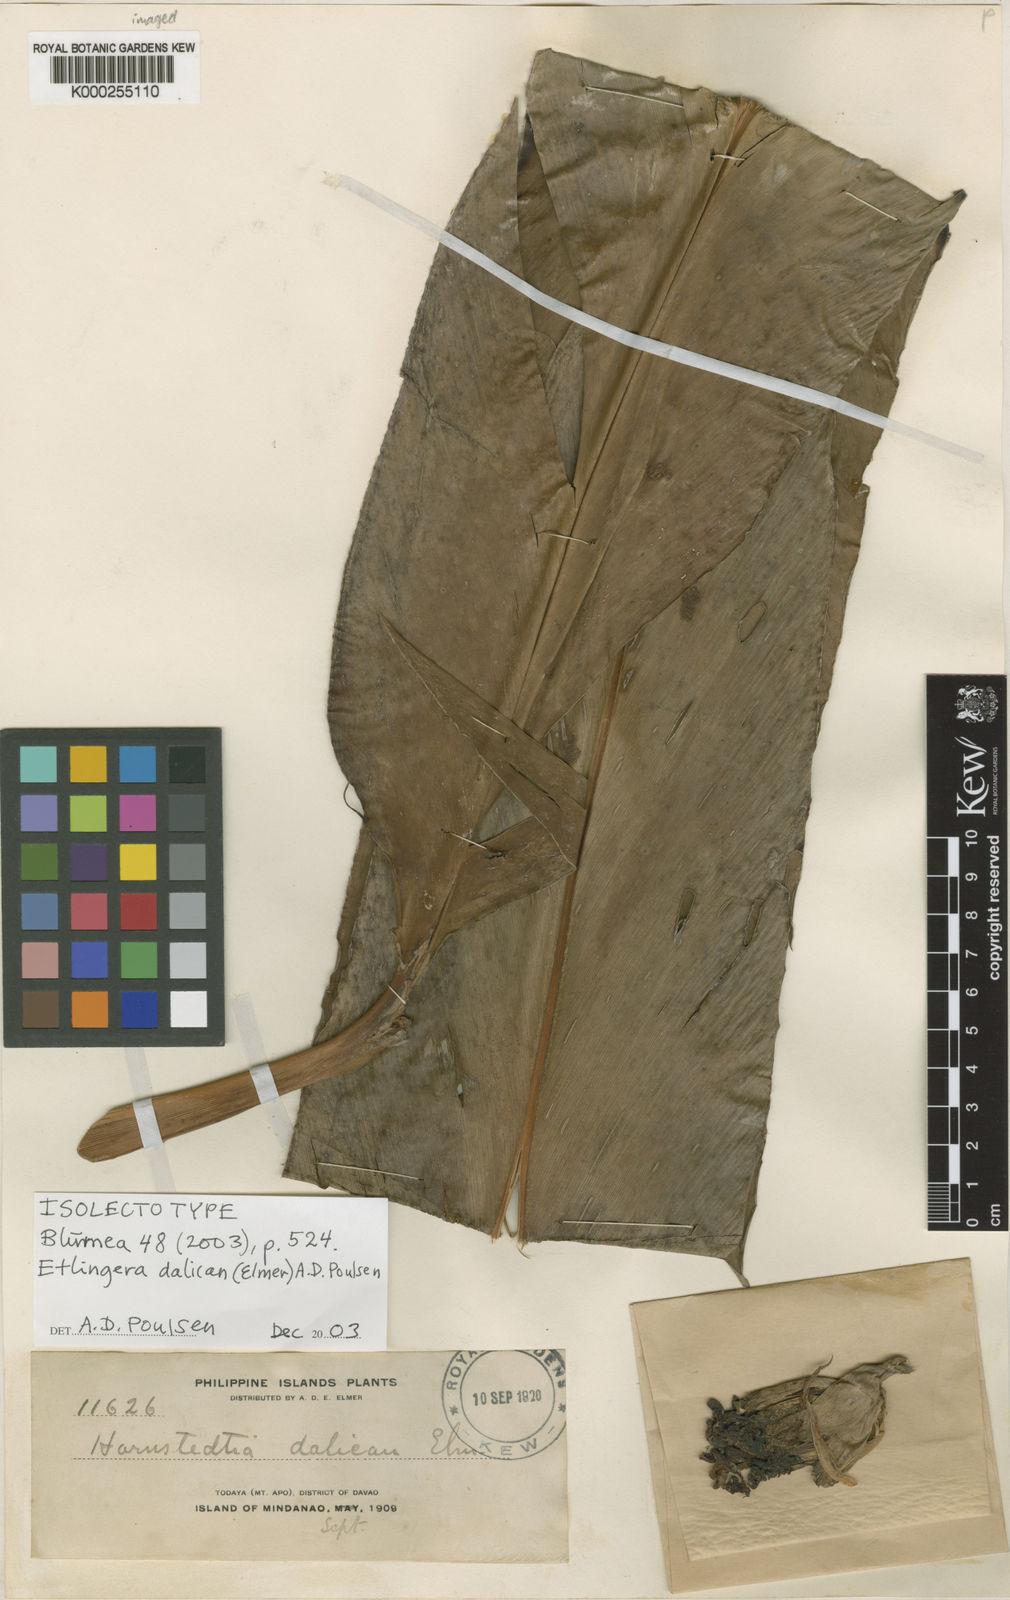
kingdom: Plantae
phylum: Tracheophyta
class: Liliopsida
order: Zingiberales
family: Zingiberaceae
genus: Etlingera
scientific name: Etlingera dalican
